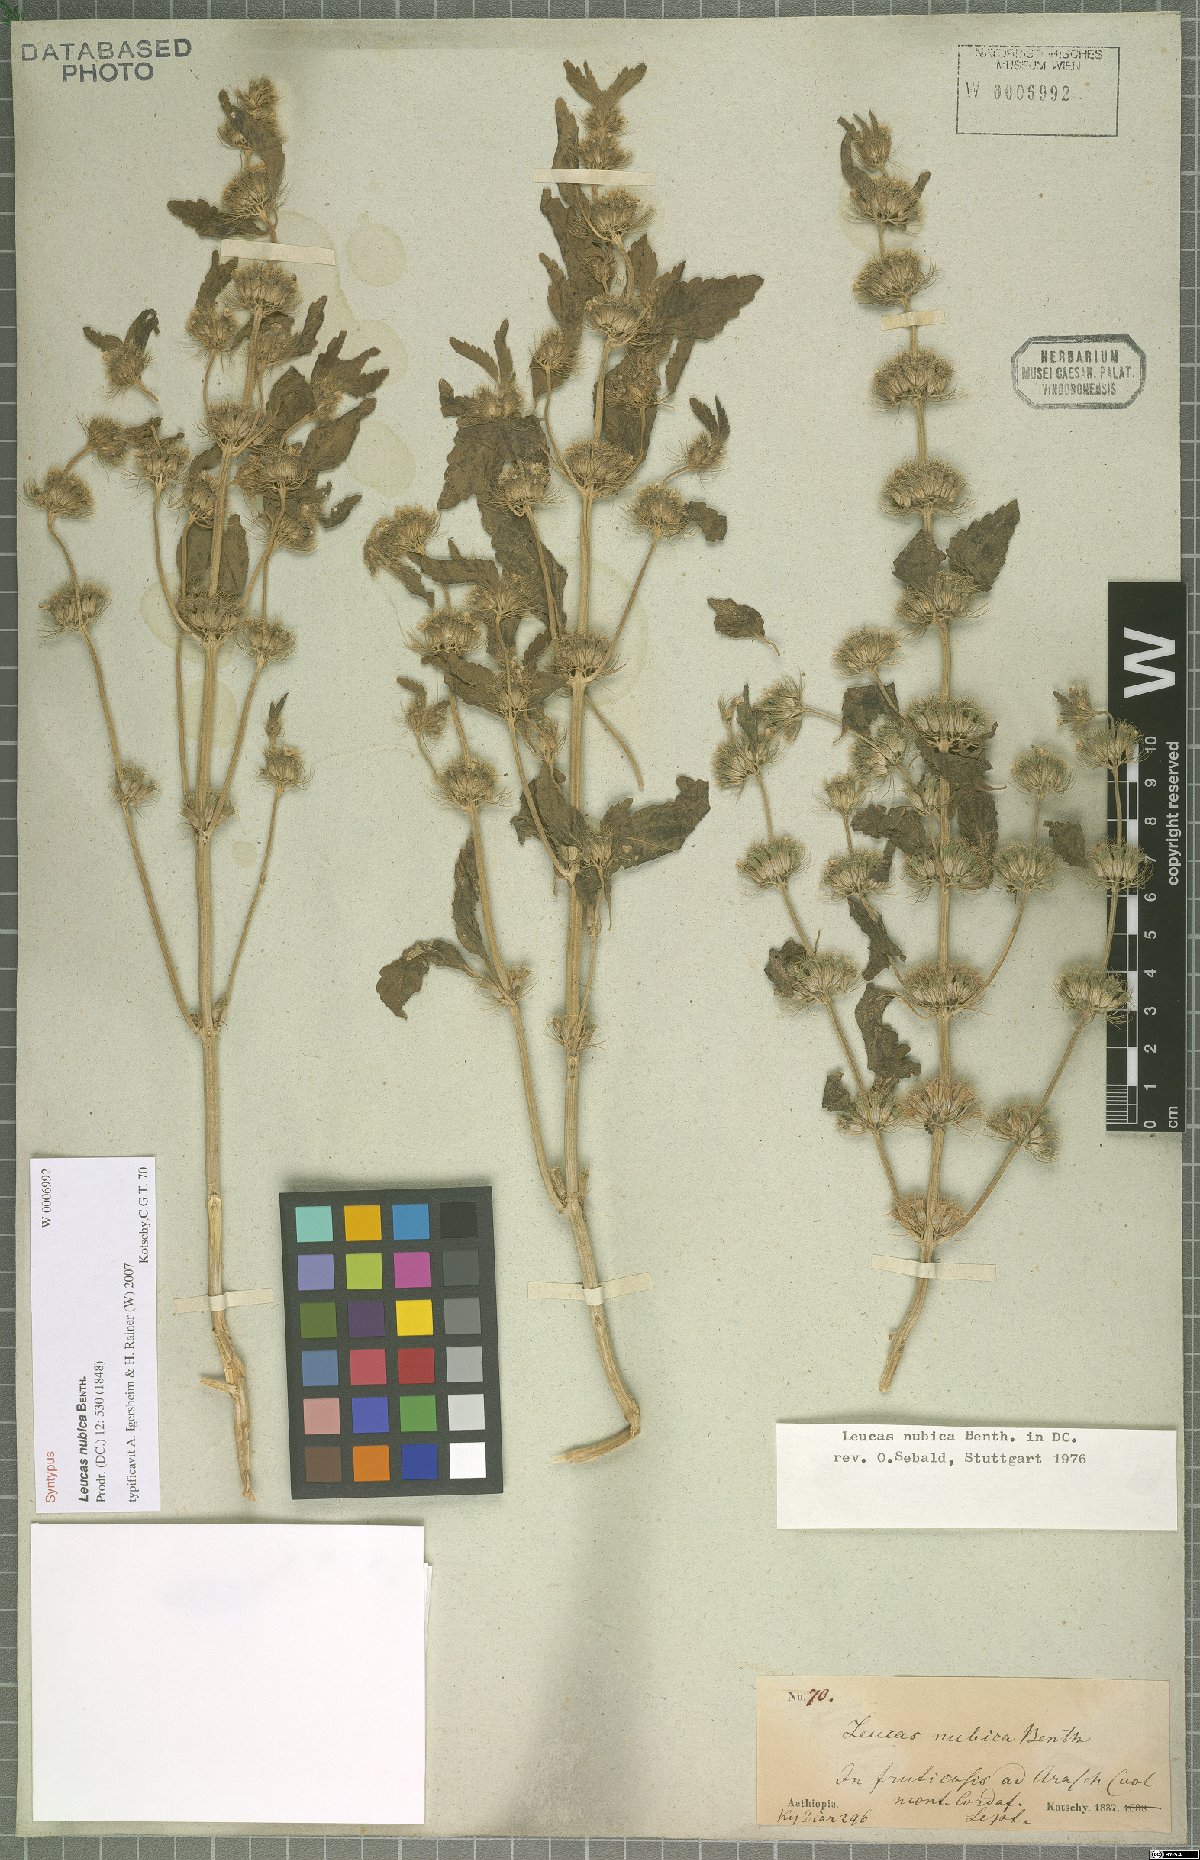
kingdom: Plantae
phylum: Tracheophyta
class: Magnoliopsida
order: Lamiales
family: Lamiaceae
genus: Leucas
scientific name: Leucas nubica
